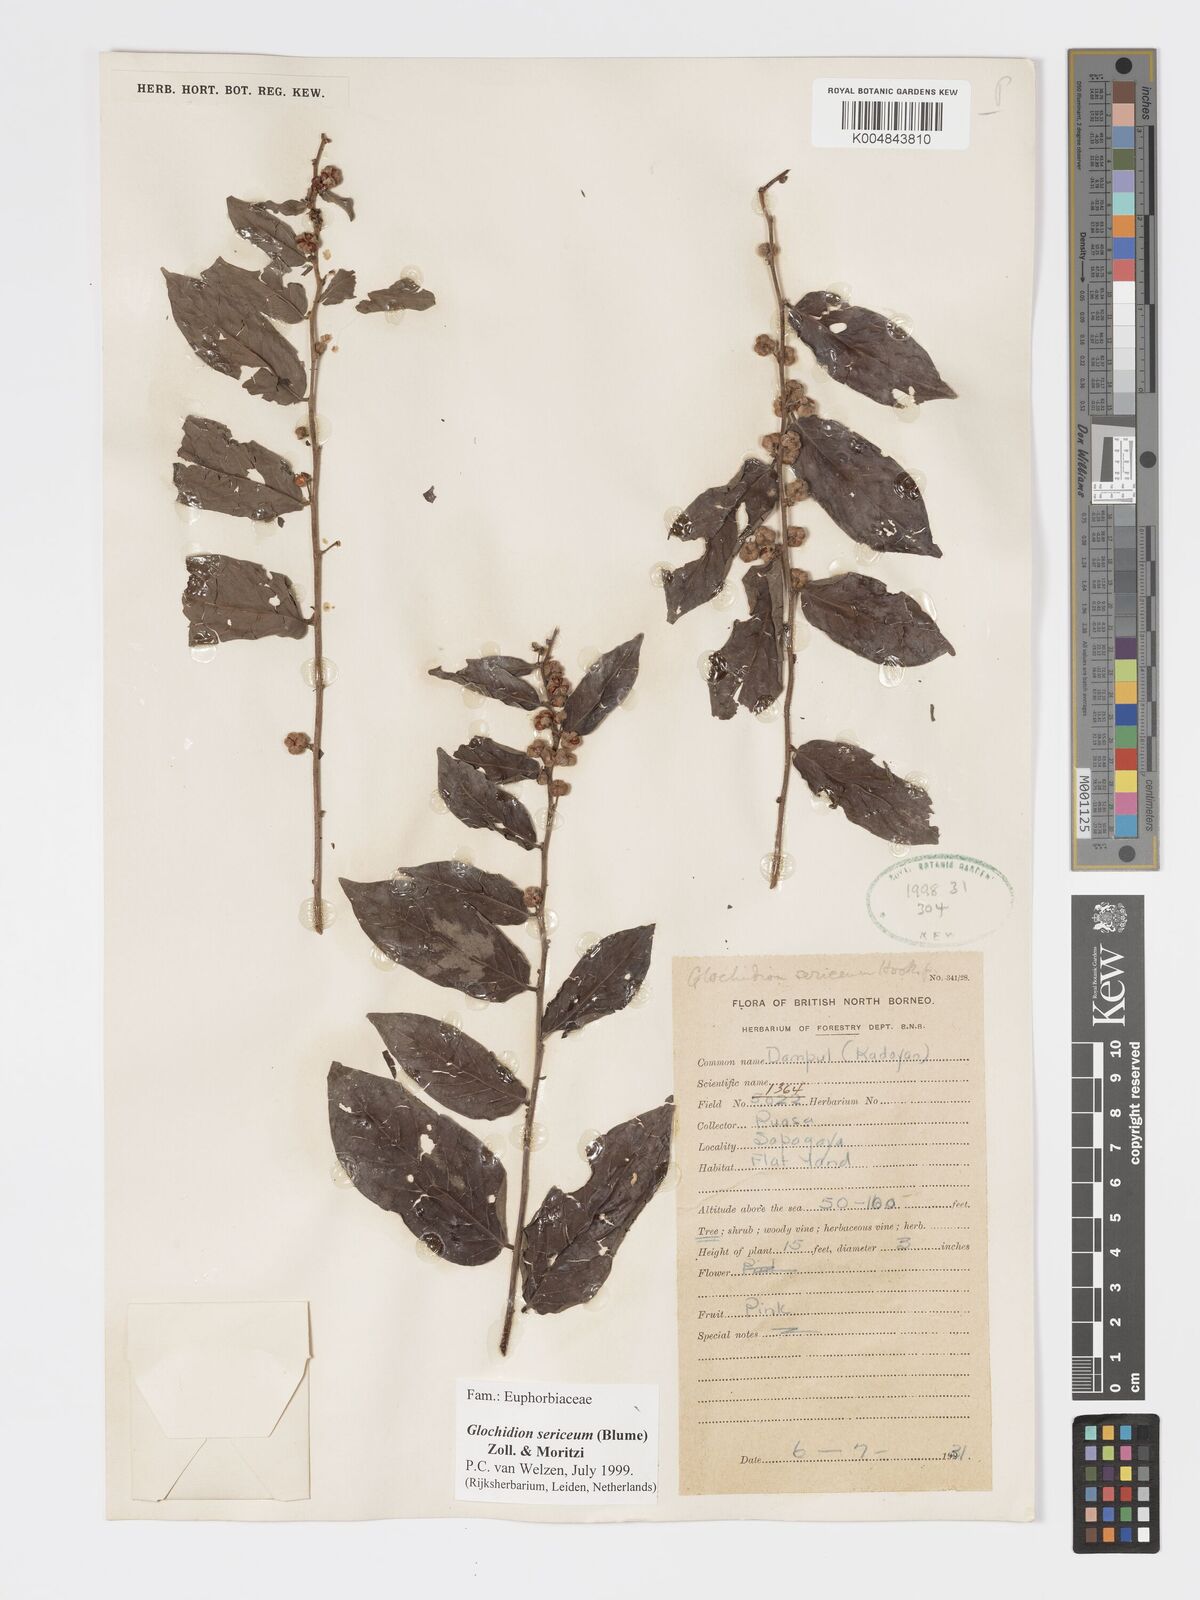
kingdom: Plantae
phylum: Tracheophyta
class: Magnoliopsida
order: Malpighiales
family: Phyllanthaceae
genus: Glochidion
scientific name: Glochidion sericeum
